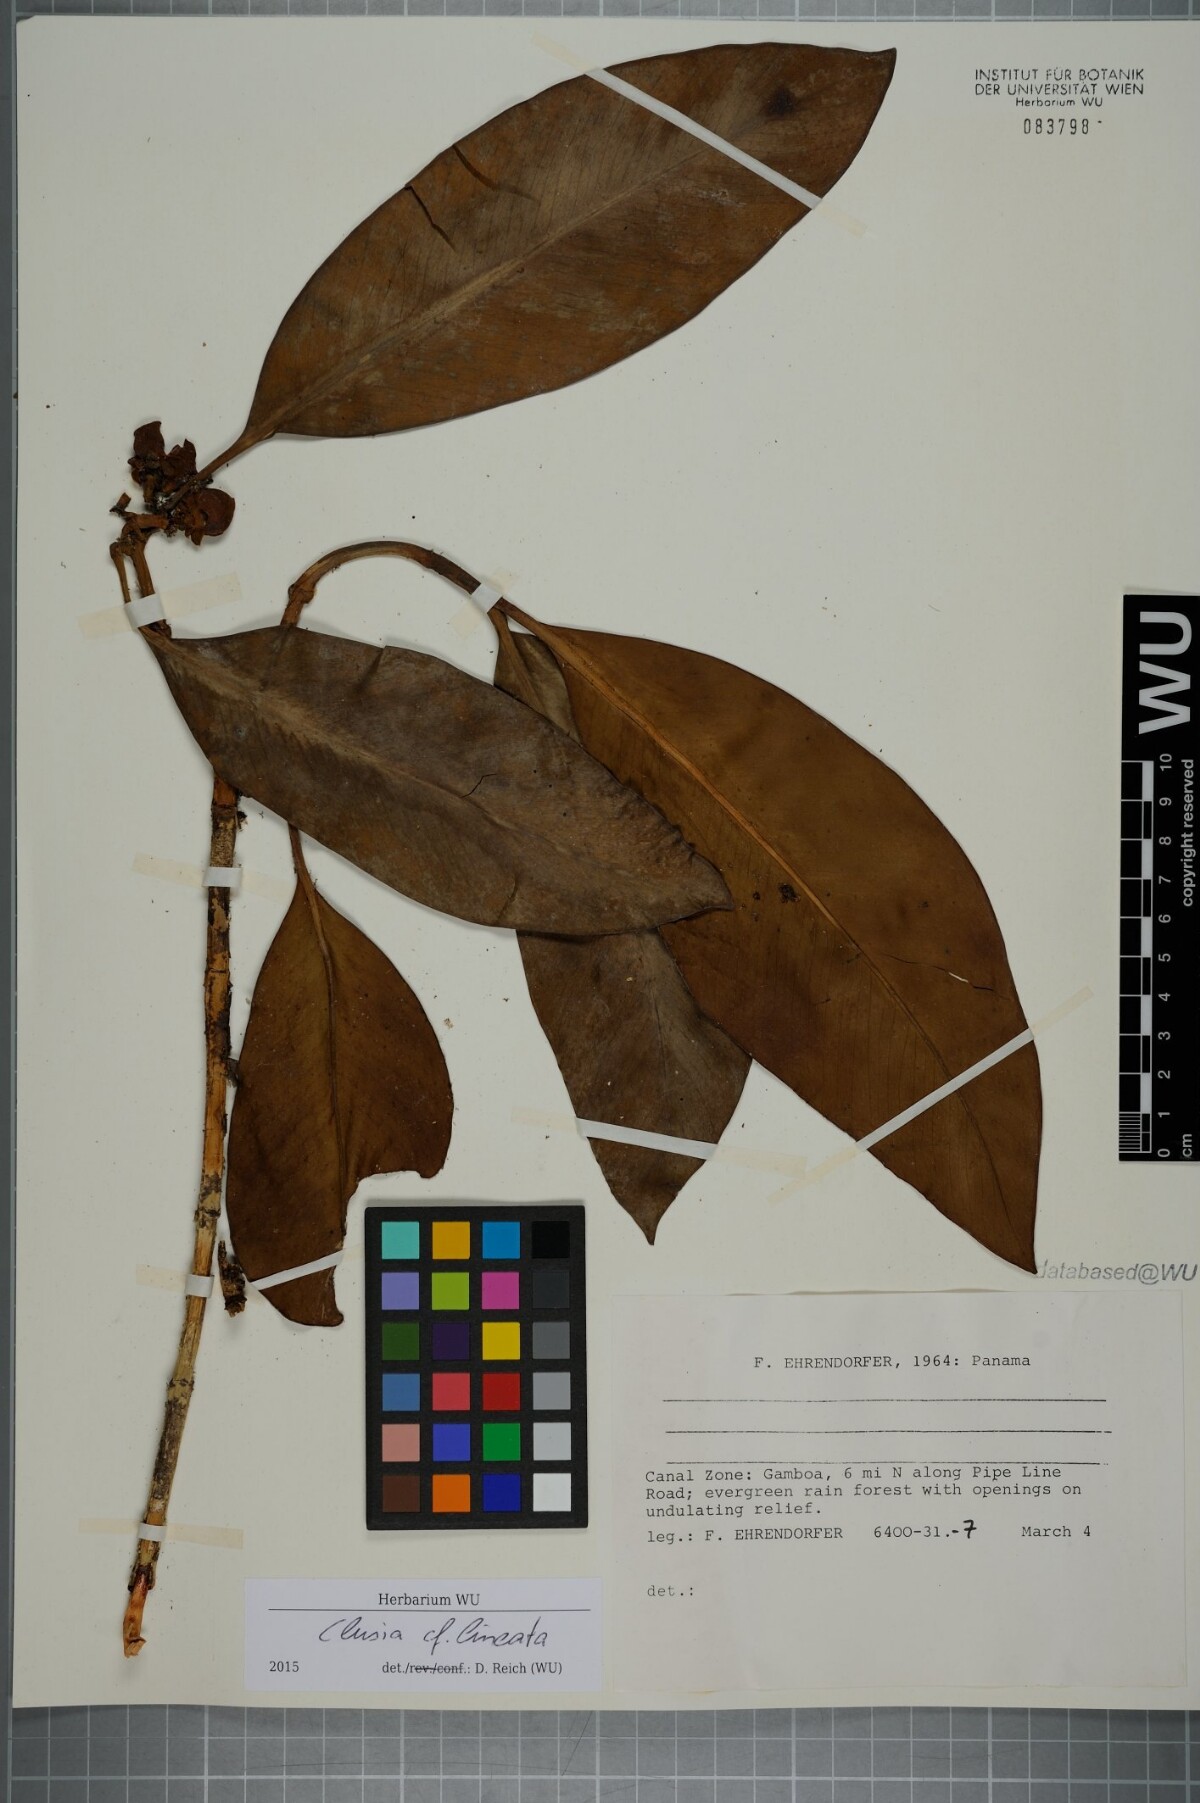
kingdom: Plantae
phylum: Tracheophyta
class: Magnoliopsida
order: Malpighiales
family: Clusiaceae
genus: Clusia
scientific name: Clusia lineata
